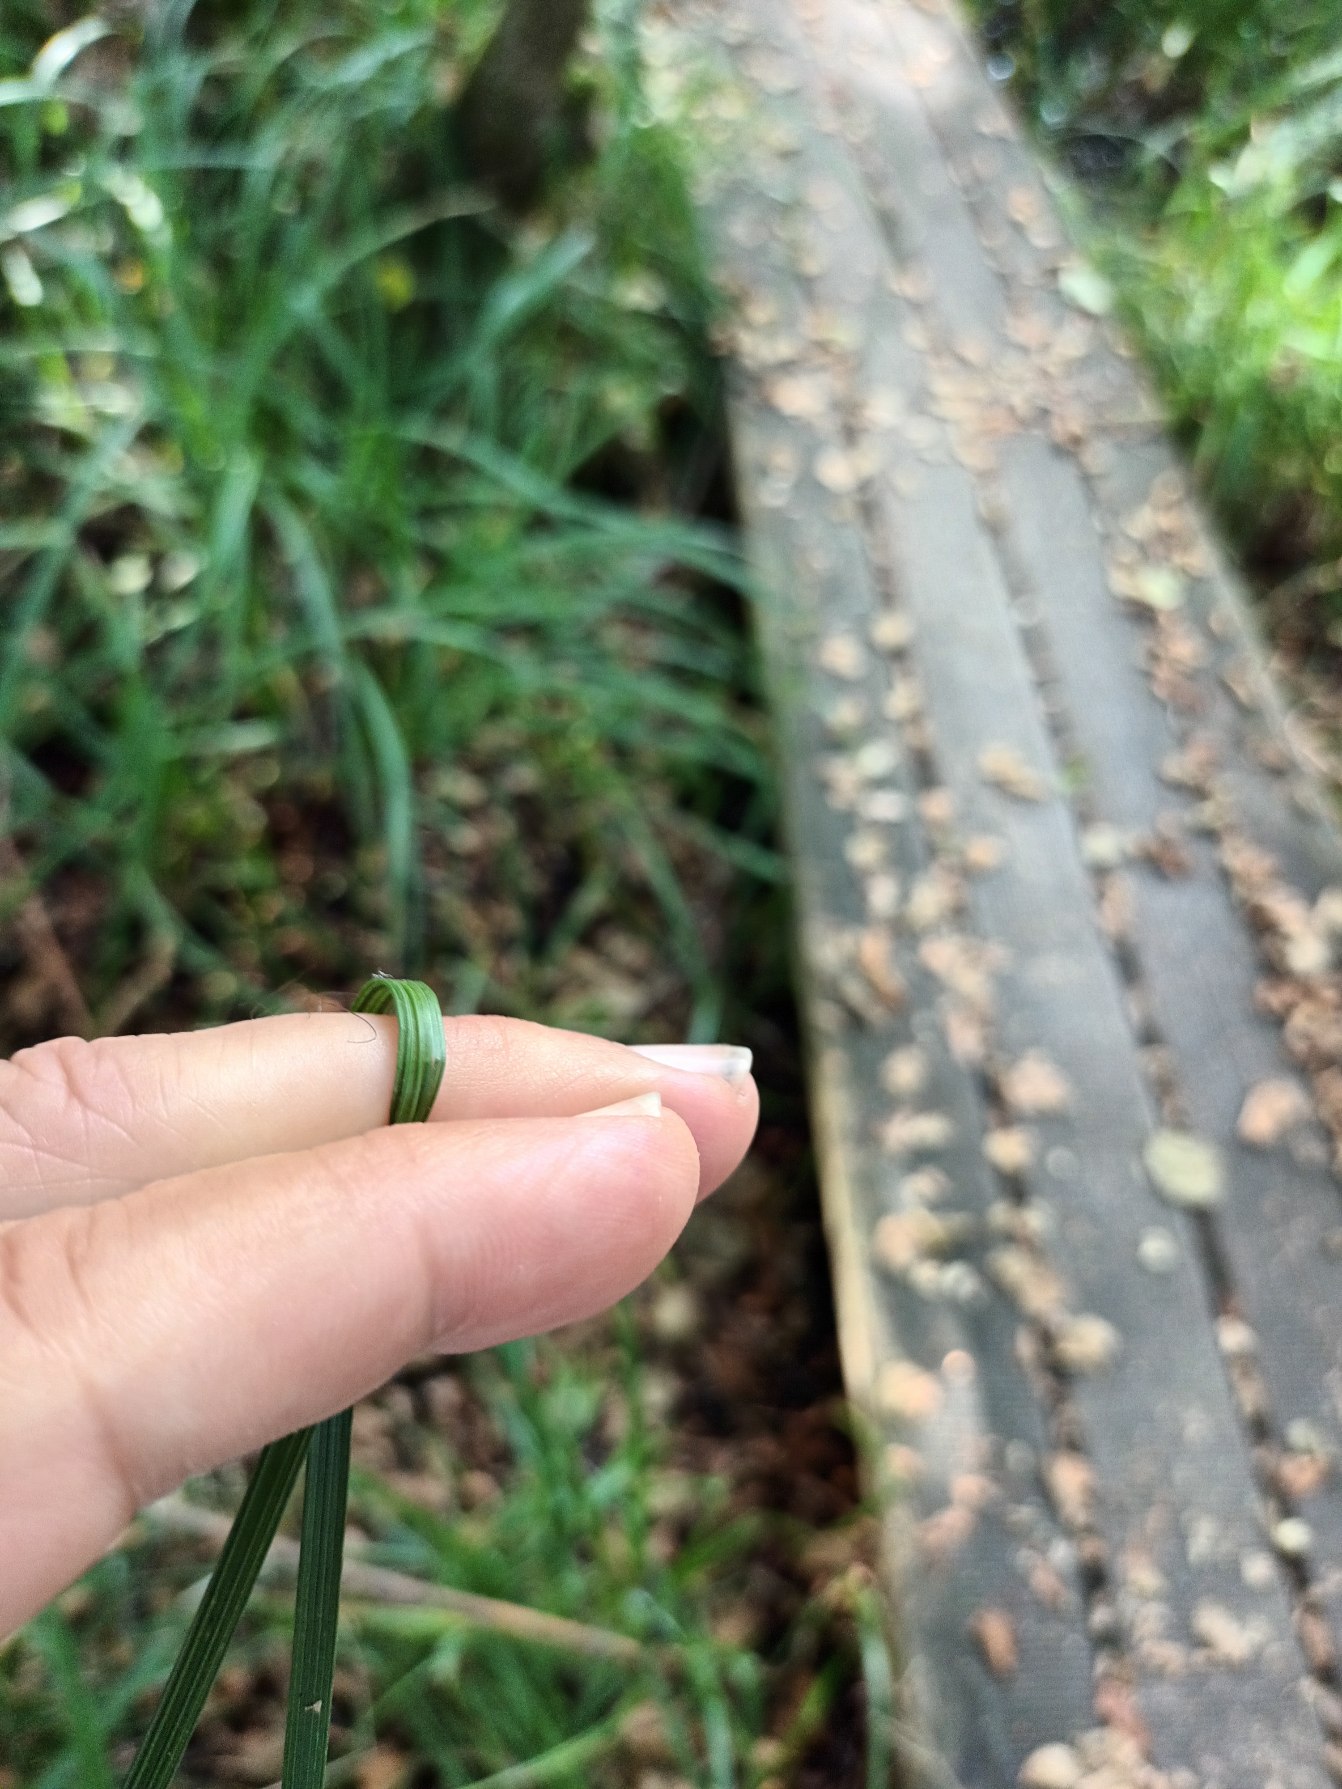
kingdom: Plantae
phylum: Tracheophyta
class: Liliopsida
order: Poales
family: Poaceae
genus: Deschampsia
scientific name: Deschampsia cespitosa
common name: Mose-bunke
